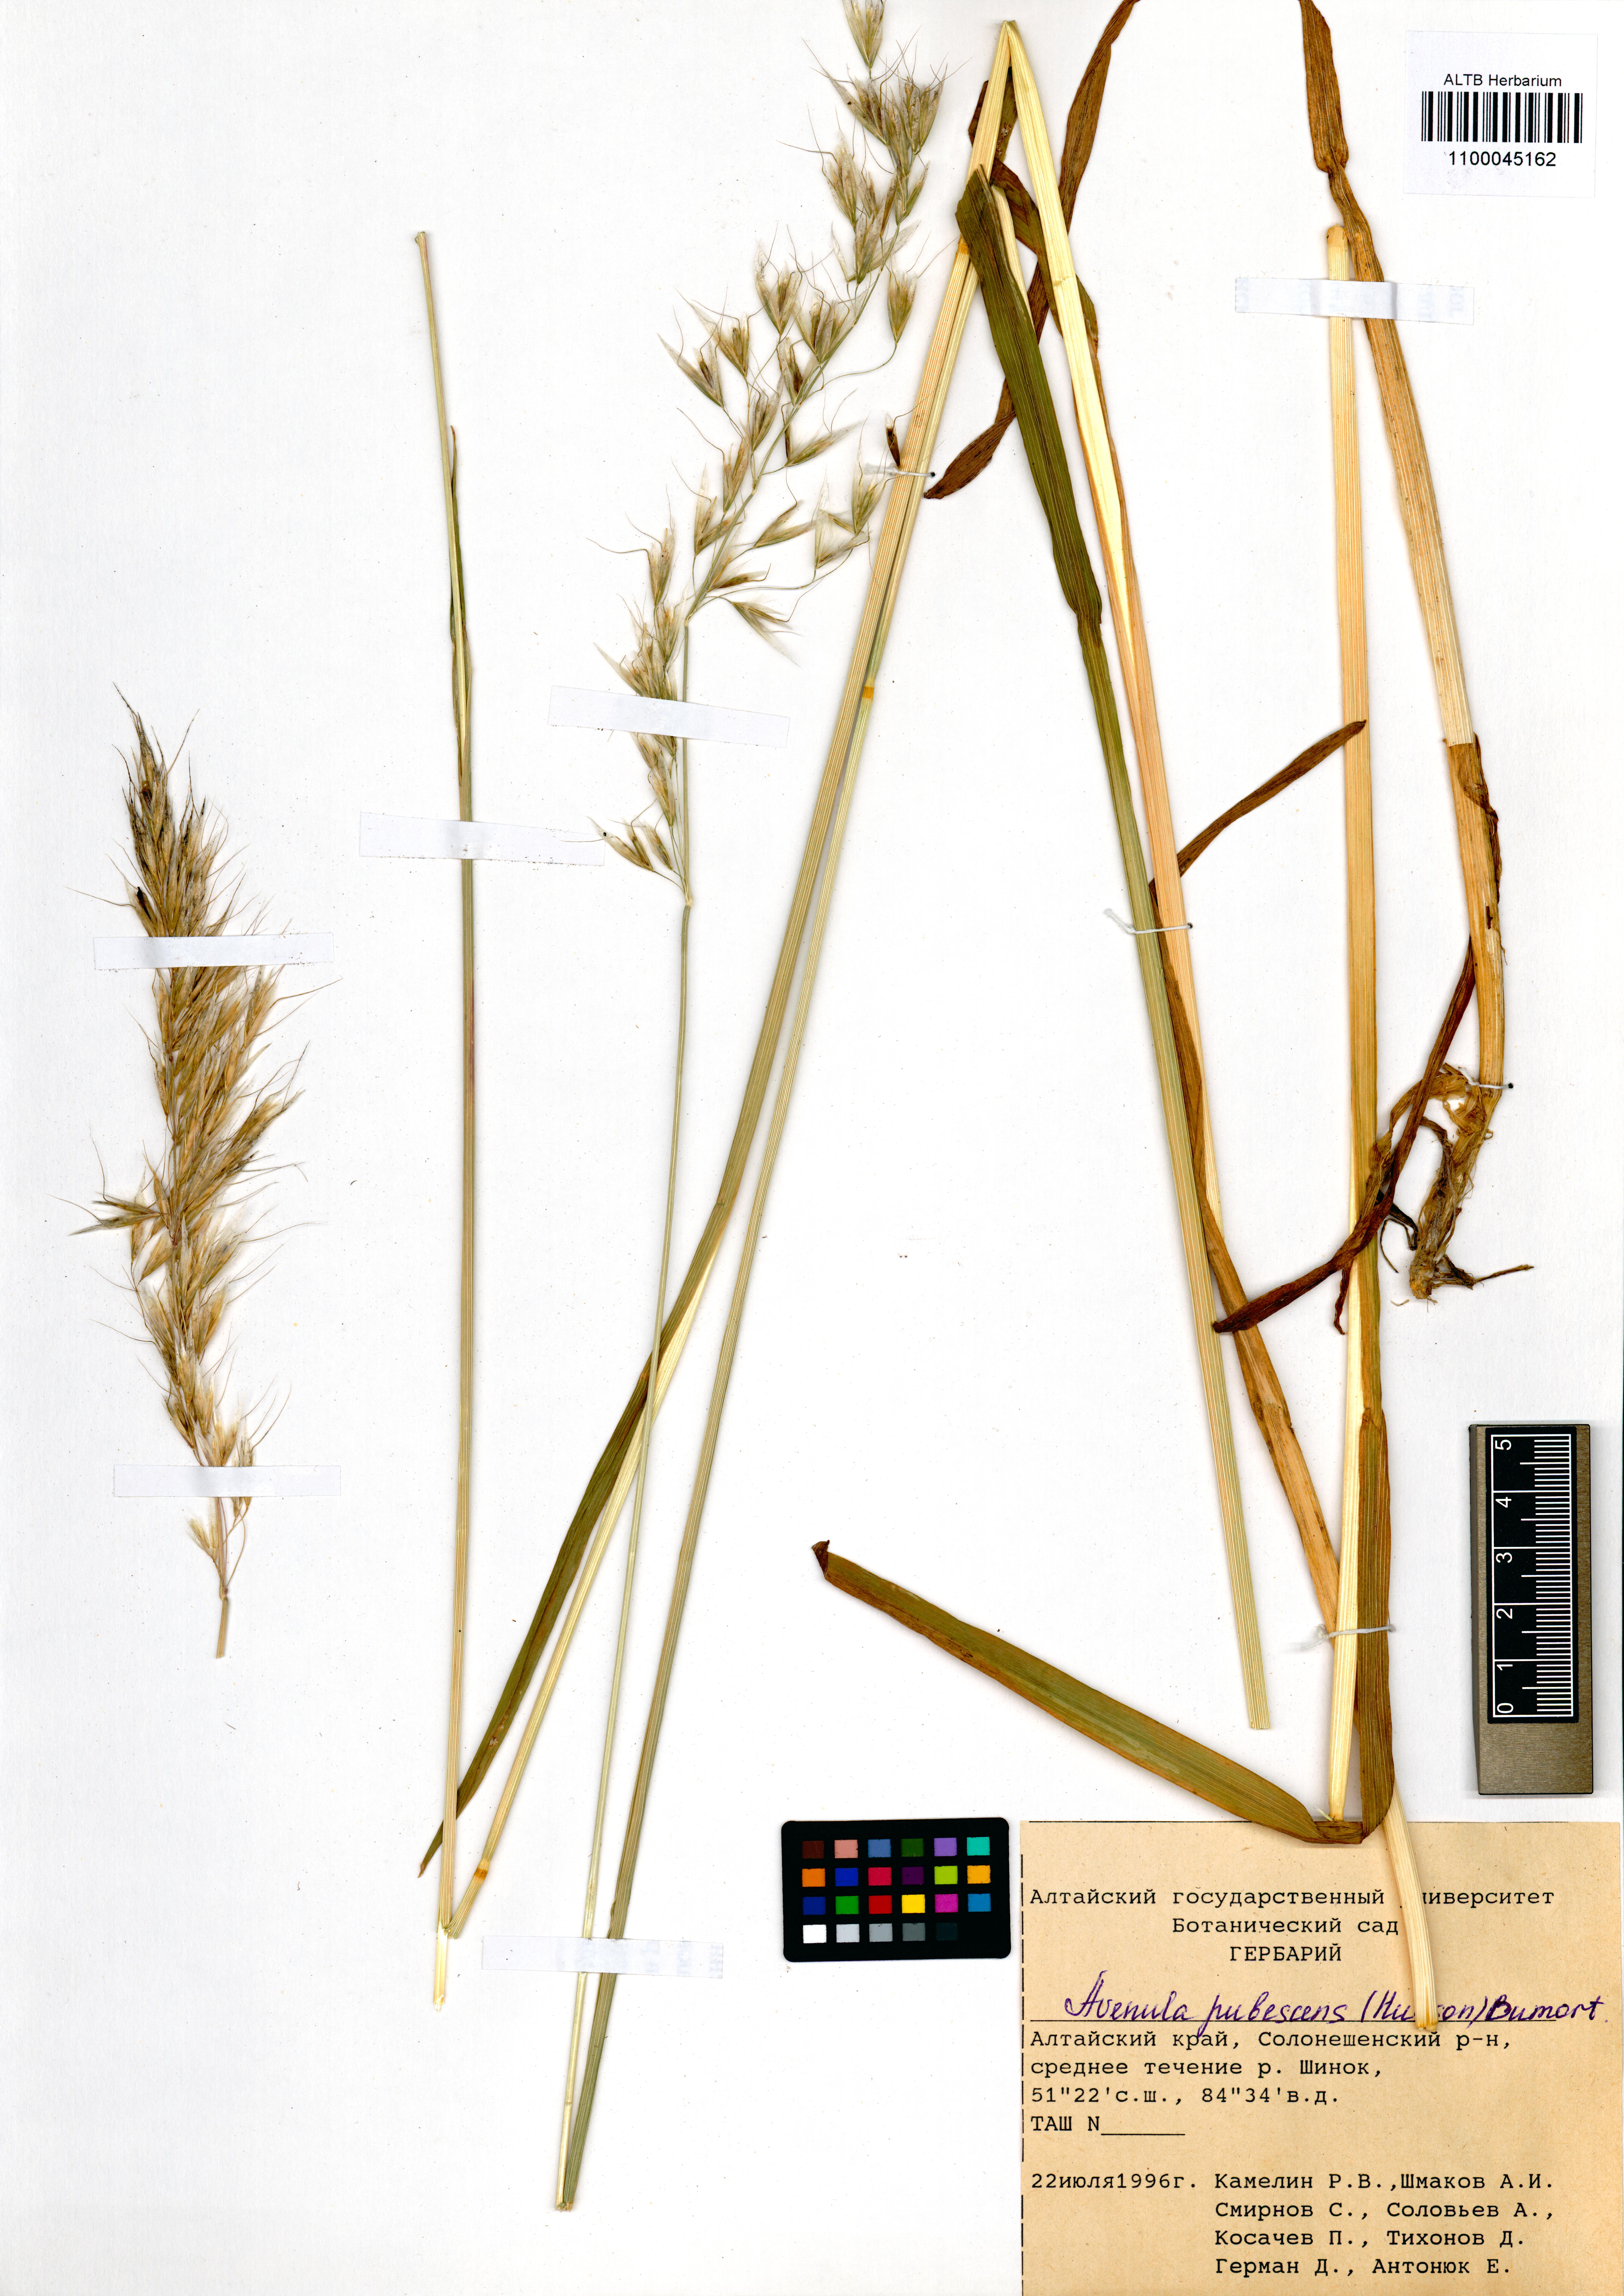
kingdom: Plantae
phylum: Tracheophyta
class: Liliopsida
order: Poales
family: Poaceae
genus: Avenula
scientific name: Avenula pubescens
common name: Downy alpine oatgrass
